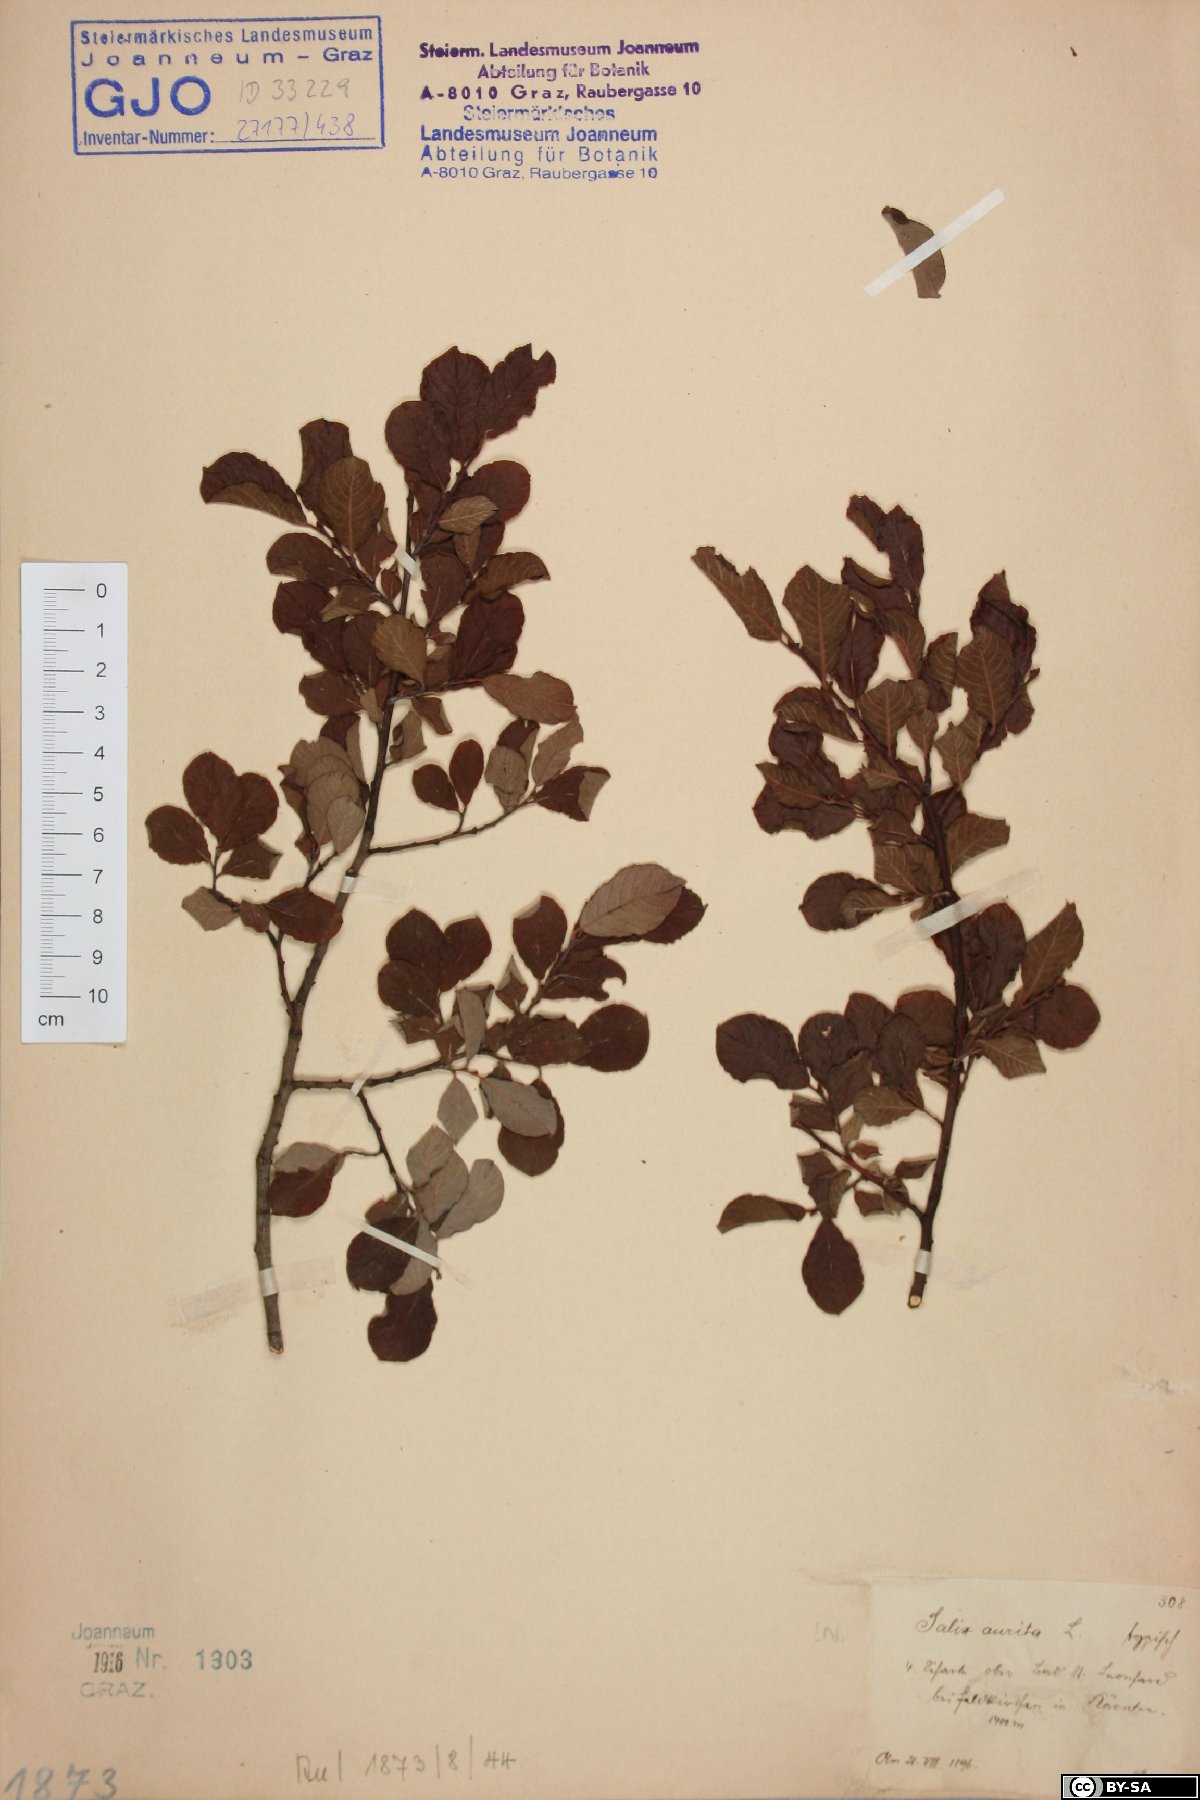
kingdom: Plantae
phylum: Tracheophyta
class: Magnoliopsida
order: Malpighiales
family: Salicaceae
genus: Salix
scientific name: Salix aurita
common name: Eared willow
